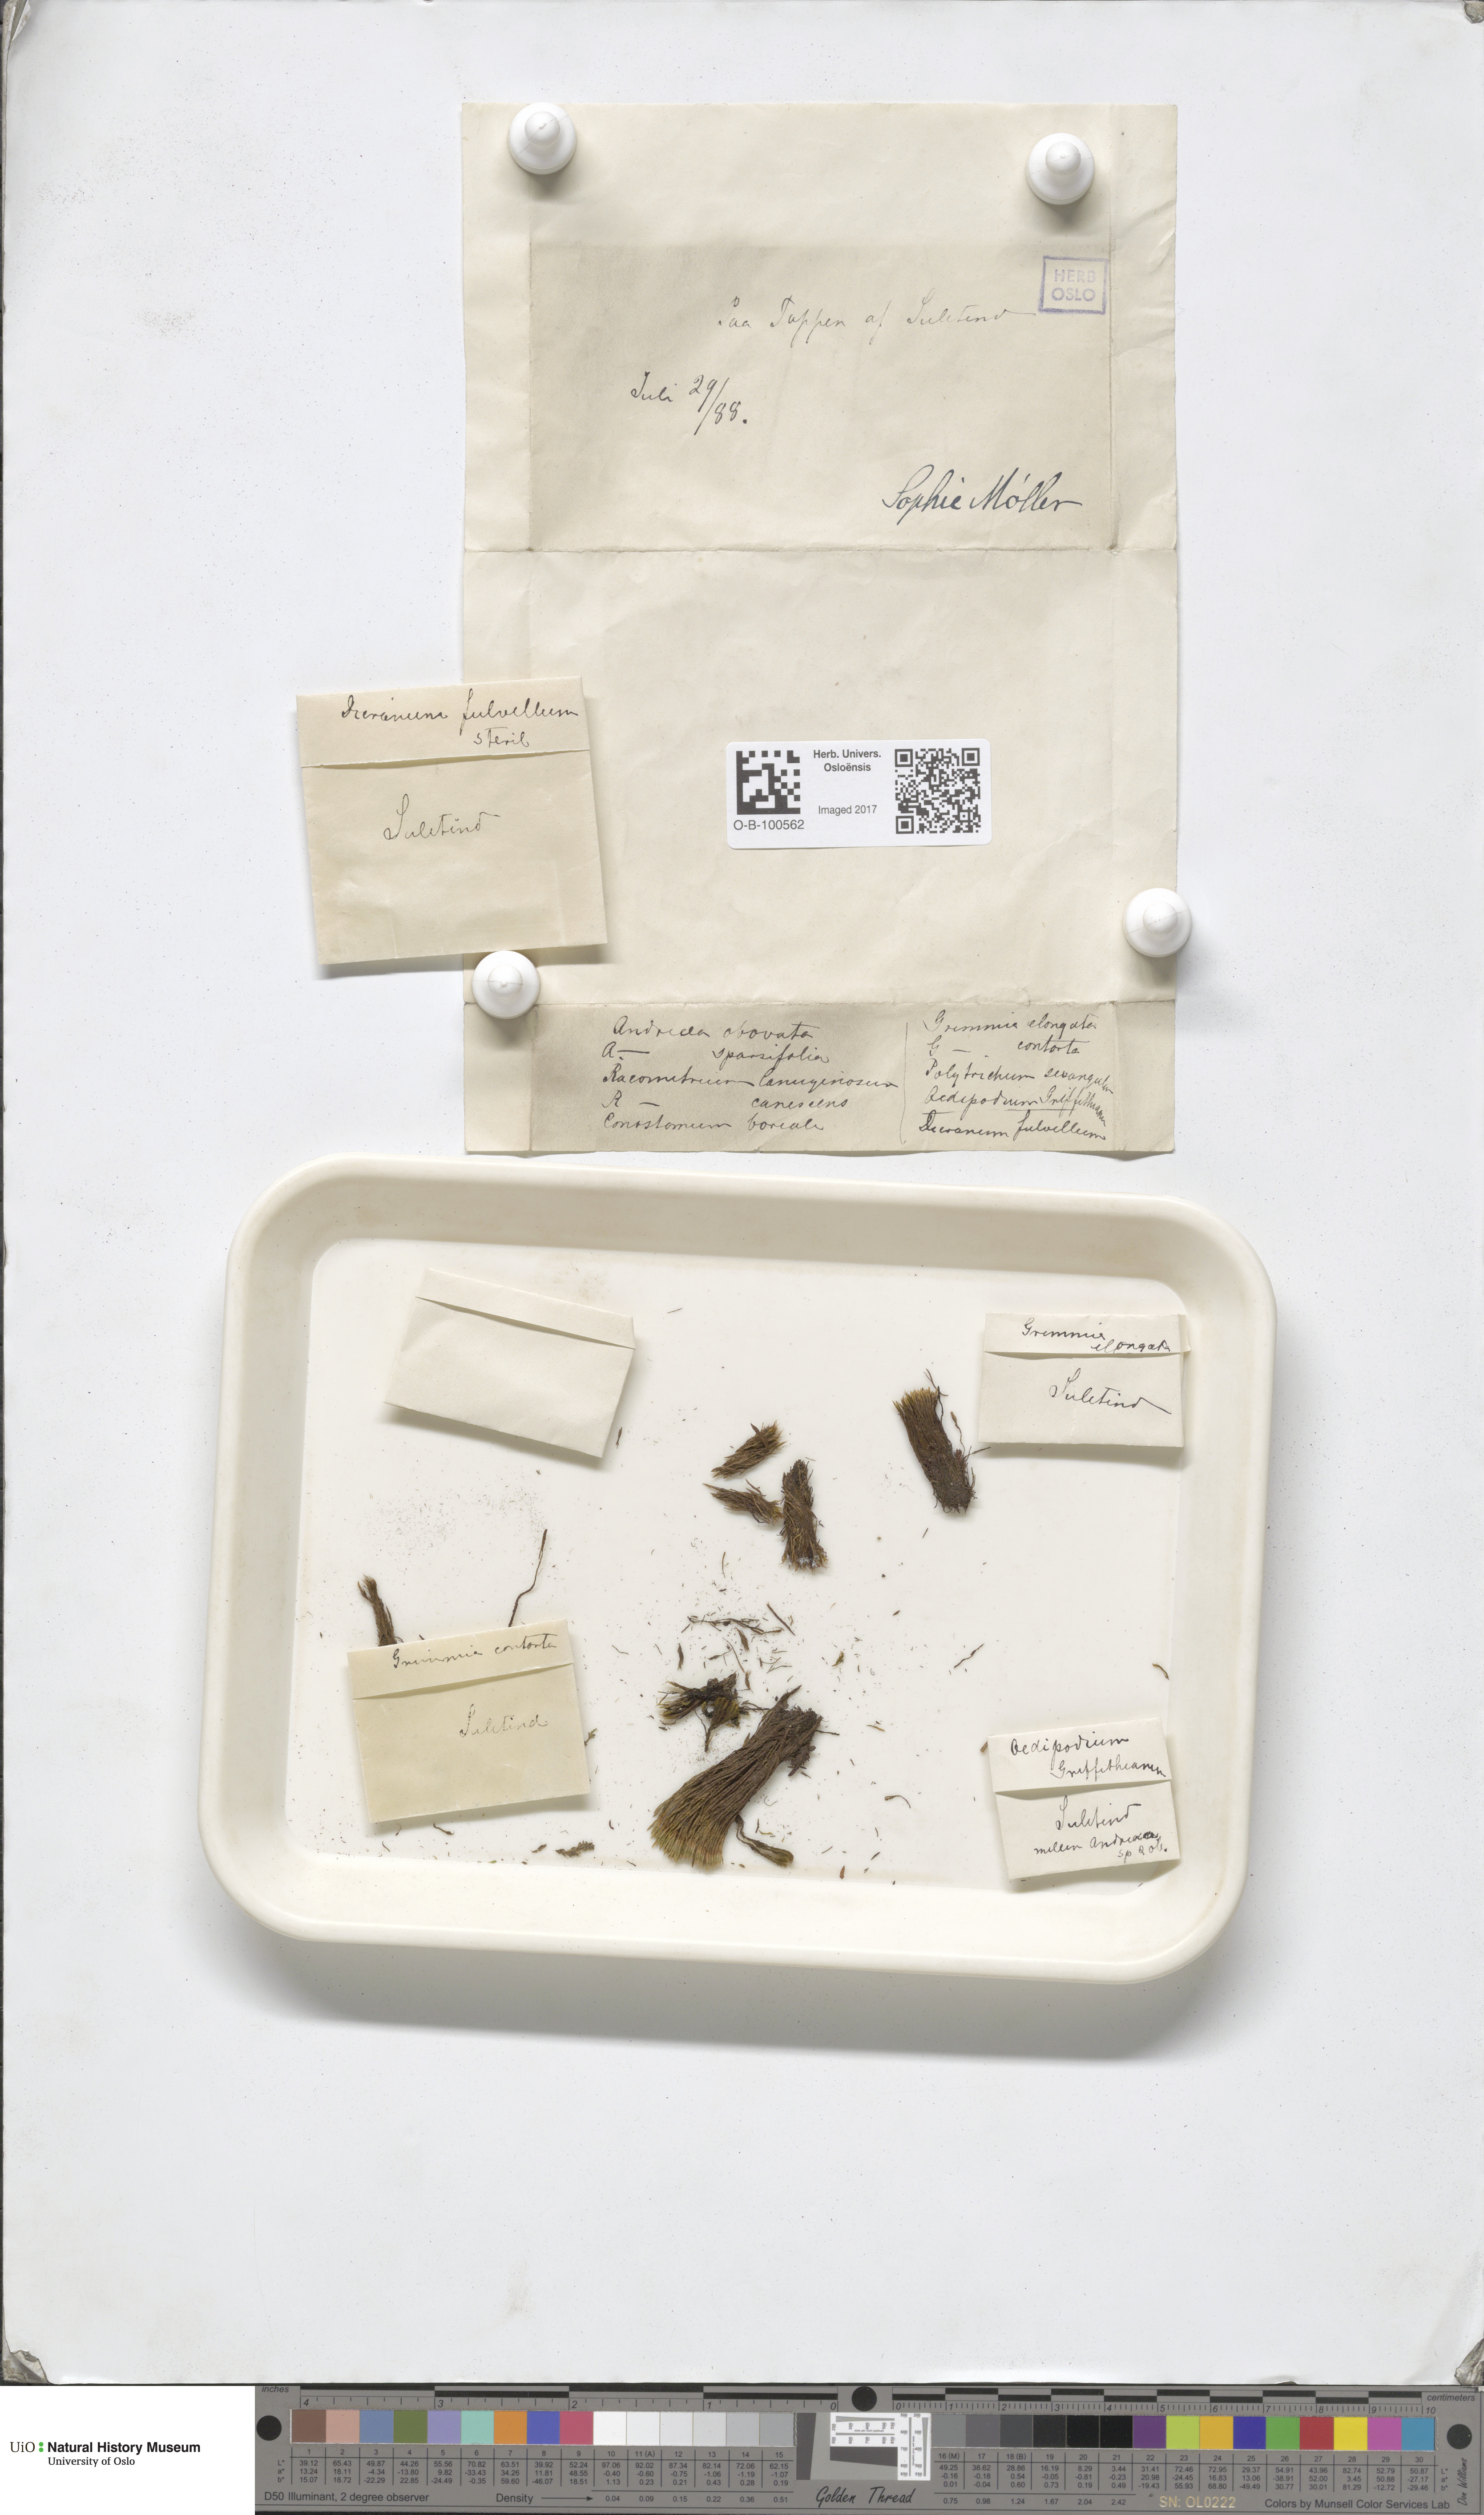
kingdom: Plantae
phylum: Bryophyta
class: Andreaeopsida
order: Andreaeales
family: Andreaeaceae
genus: Andreaea
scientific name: Andreaea alpina
